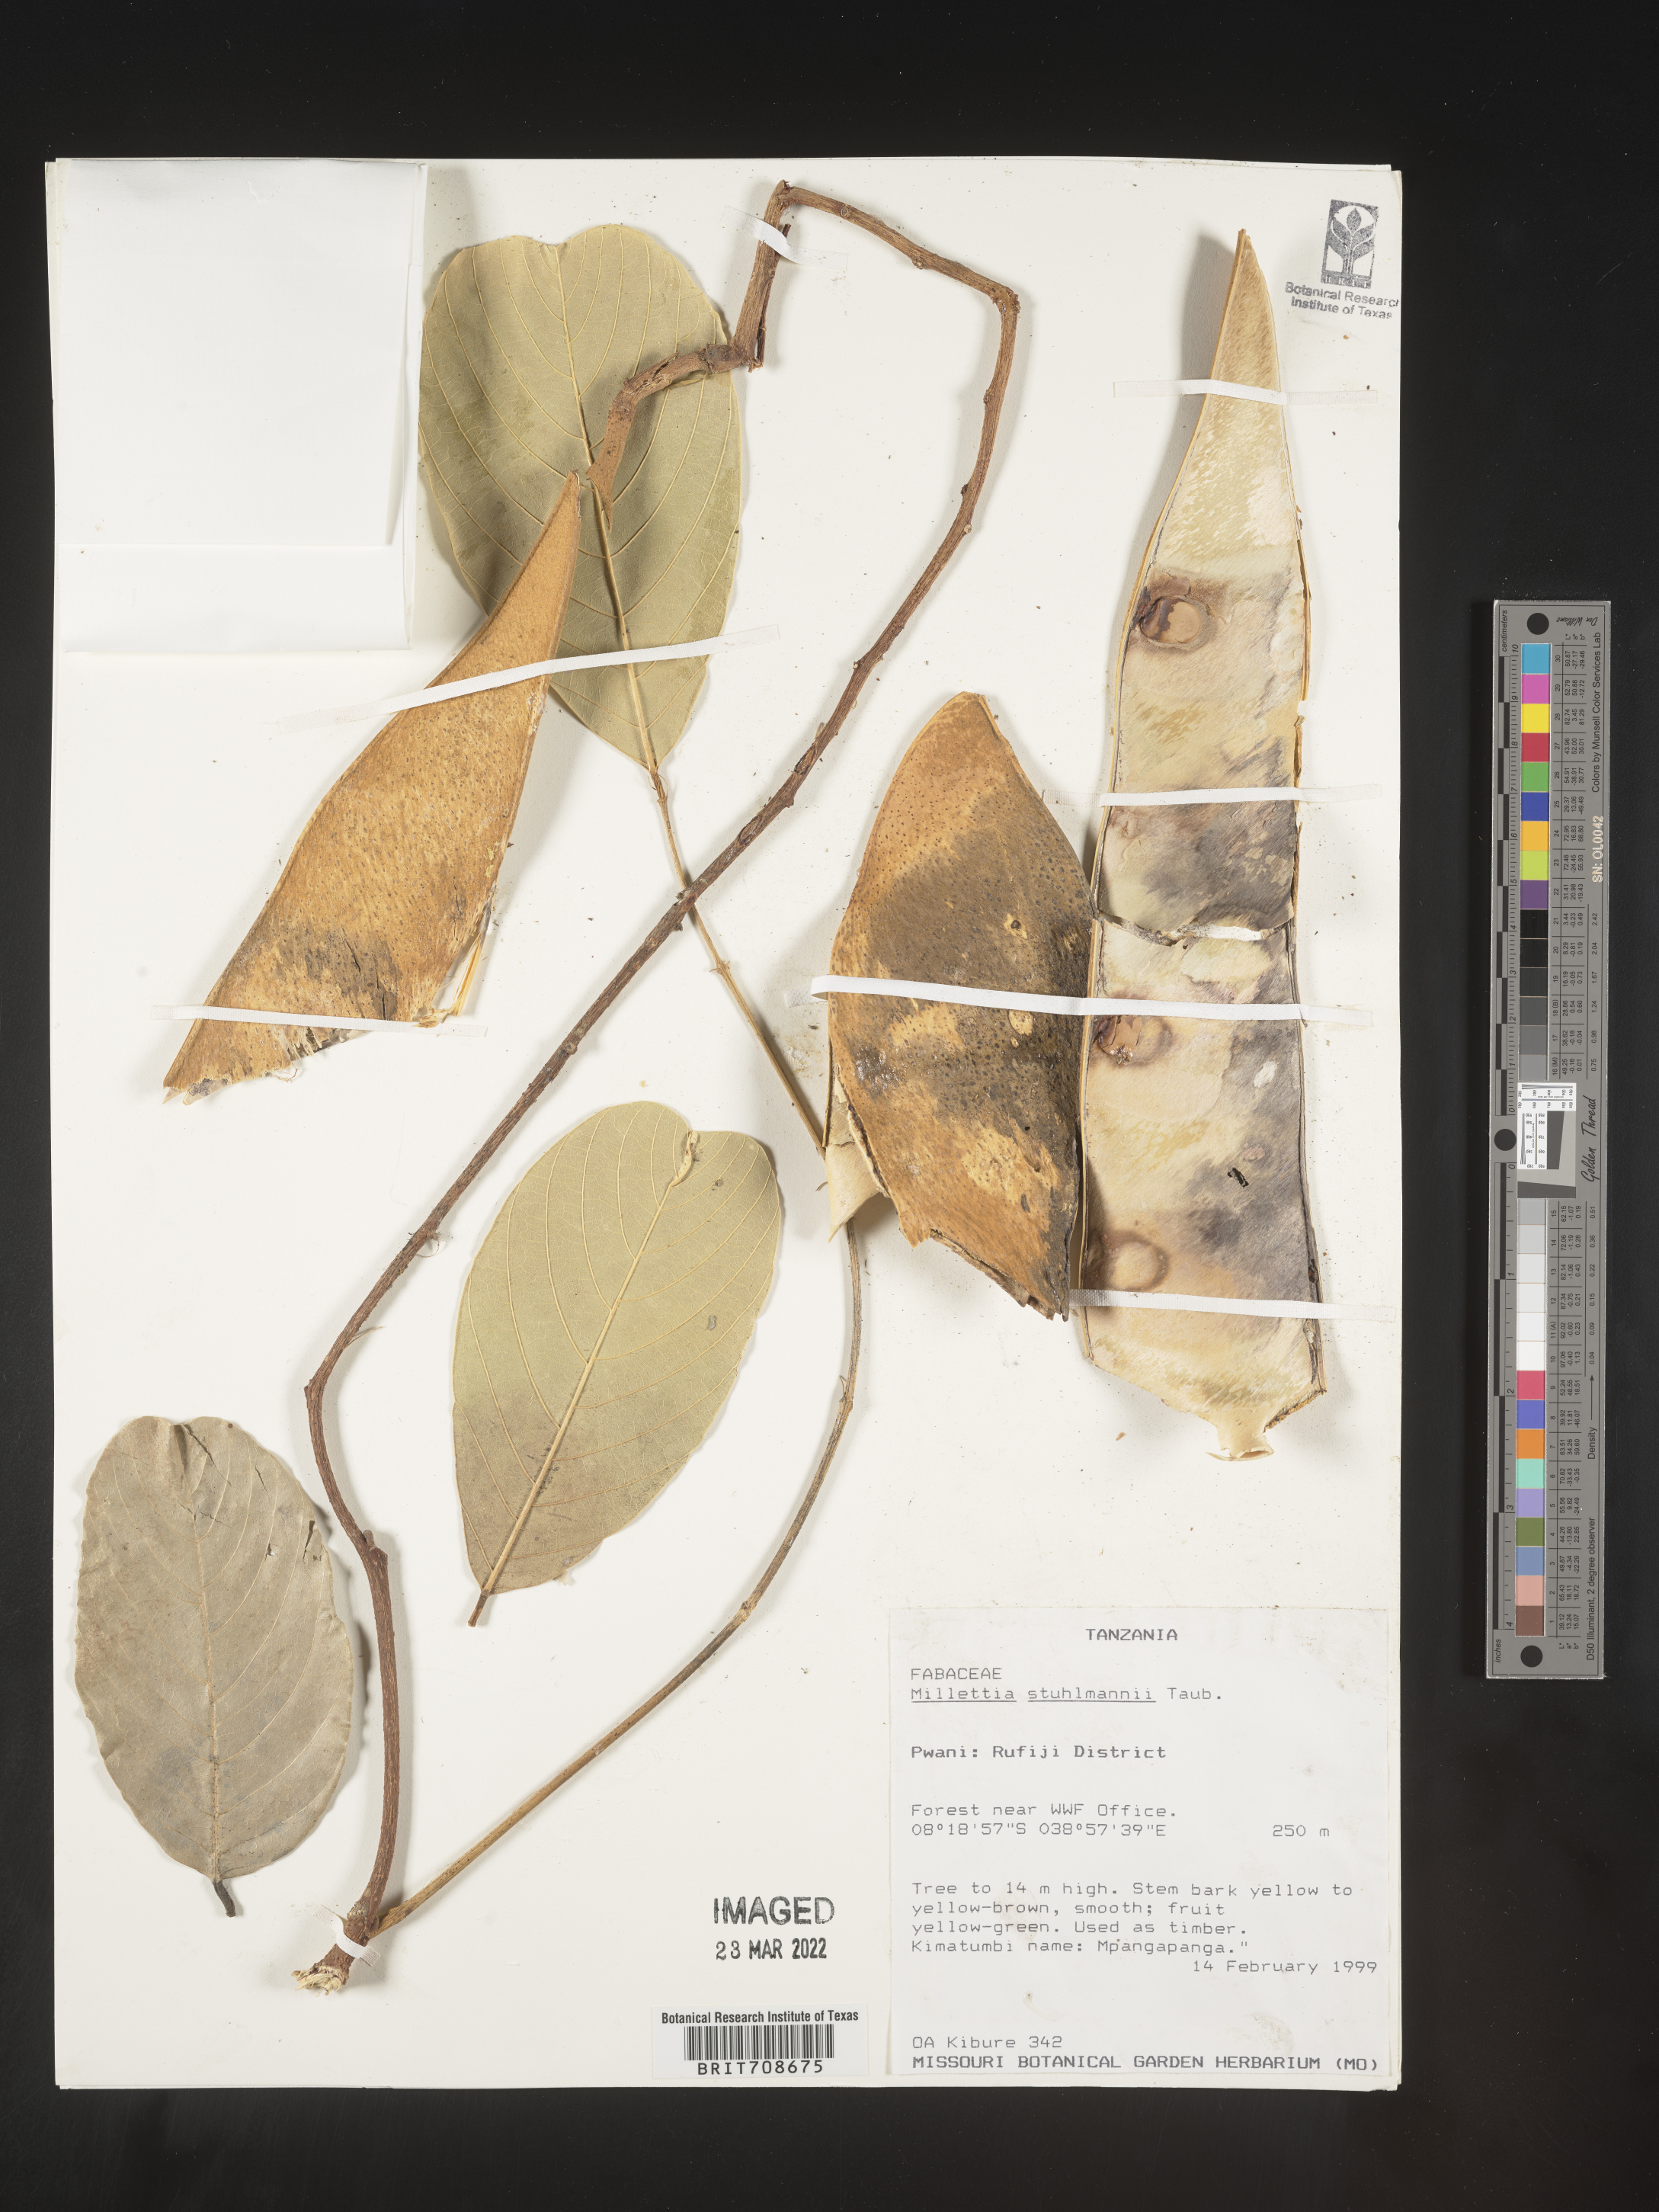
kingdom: Plantae
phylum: Tracheophyta
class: Magnoliopsida
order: Fabales
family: Fabaceae
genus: Millettia
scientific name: Millettia
